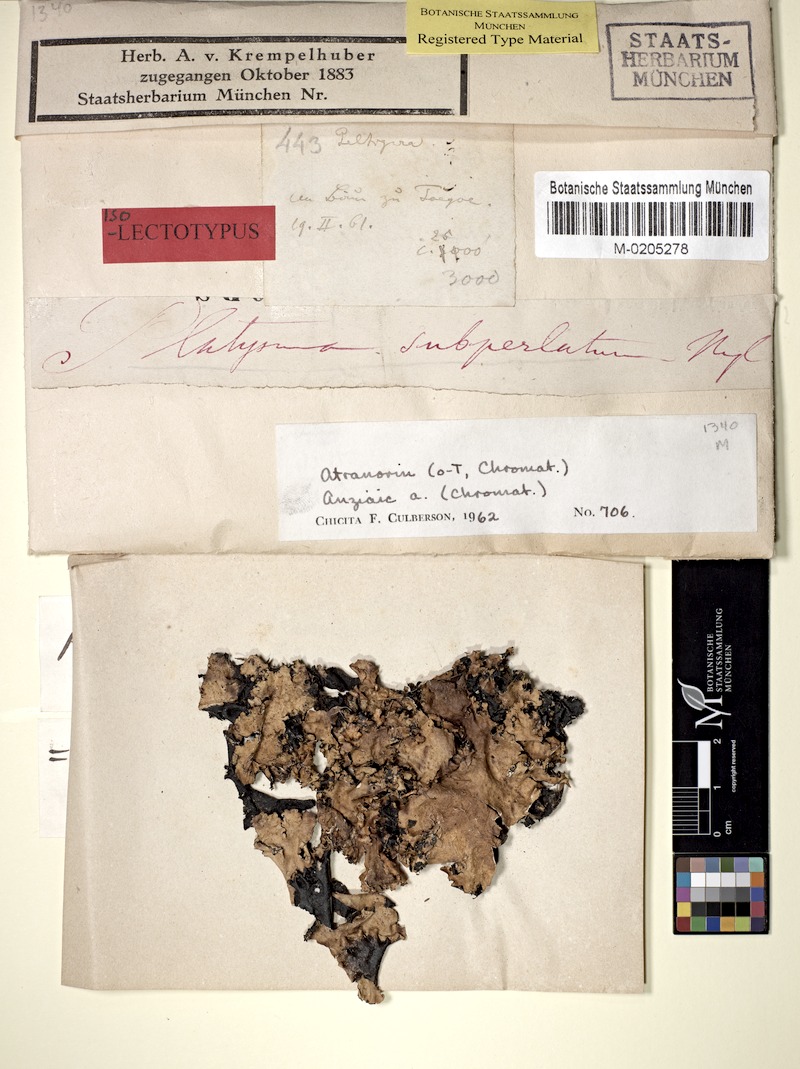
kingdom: Fungi
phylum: Ascomycota
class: Lecanoromycetes
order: Lecanorales
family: Parmeliaceae
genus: Cetrelia
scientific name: Cetrelia sanguinea
